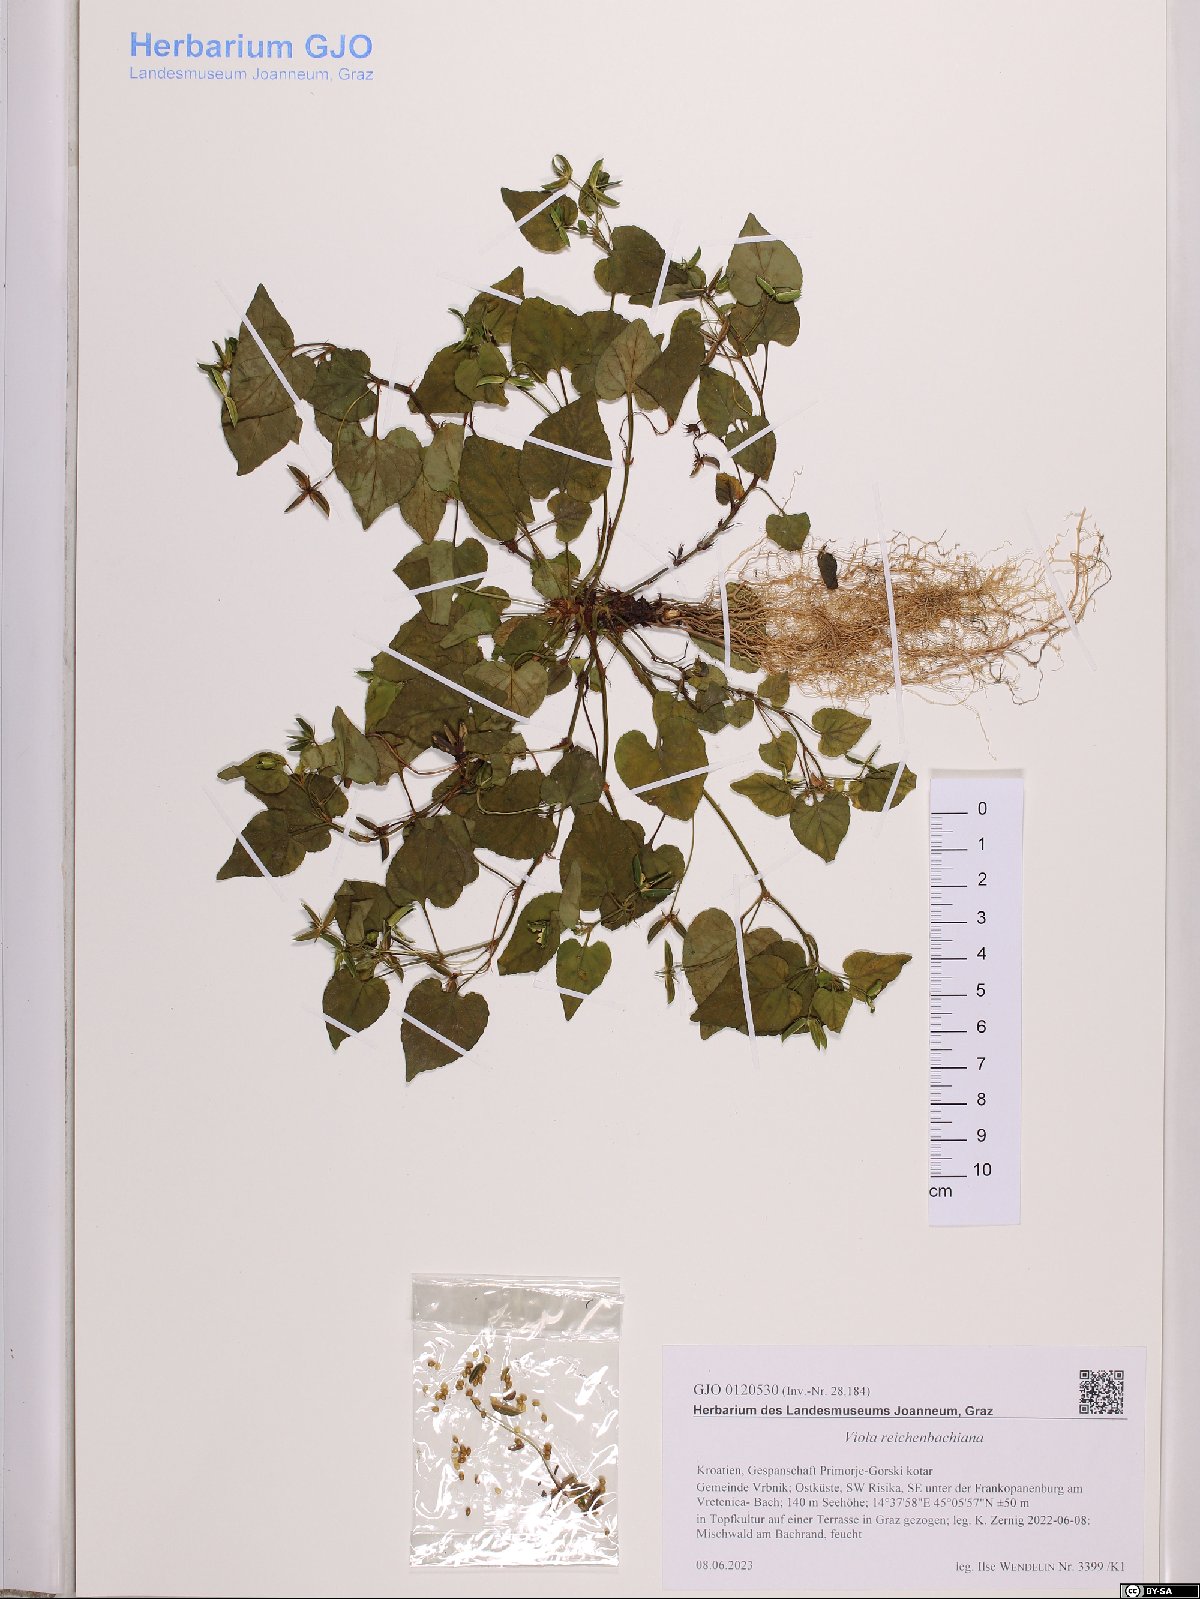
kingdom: Plantae
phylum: Tracheophyta
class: Magnoliopsida
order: Malpighiales
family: Violaceae
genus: Viola
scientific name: Viola reichenbachiana
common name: Early dog-violet
